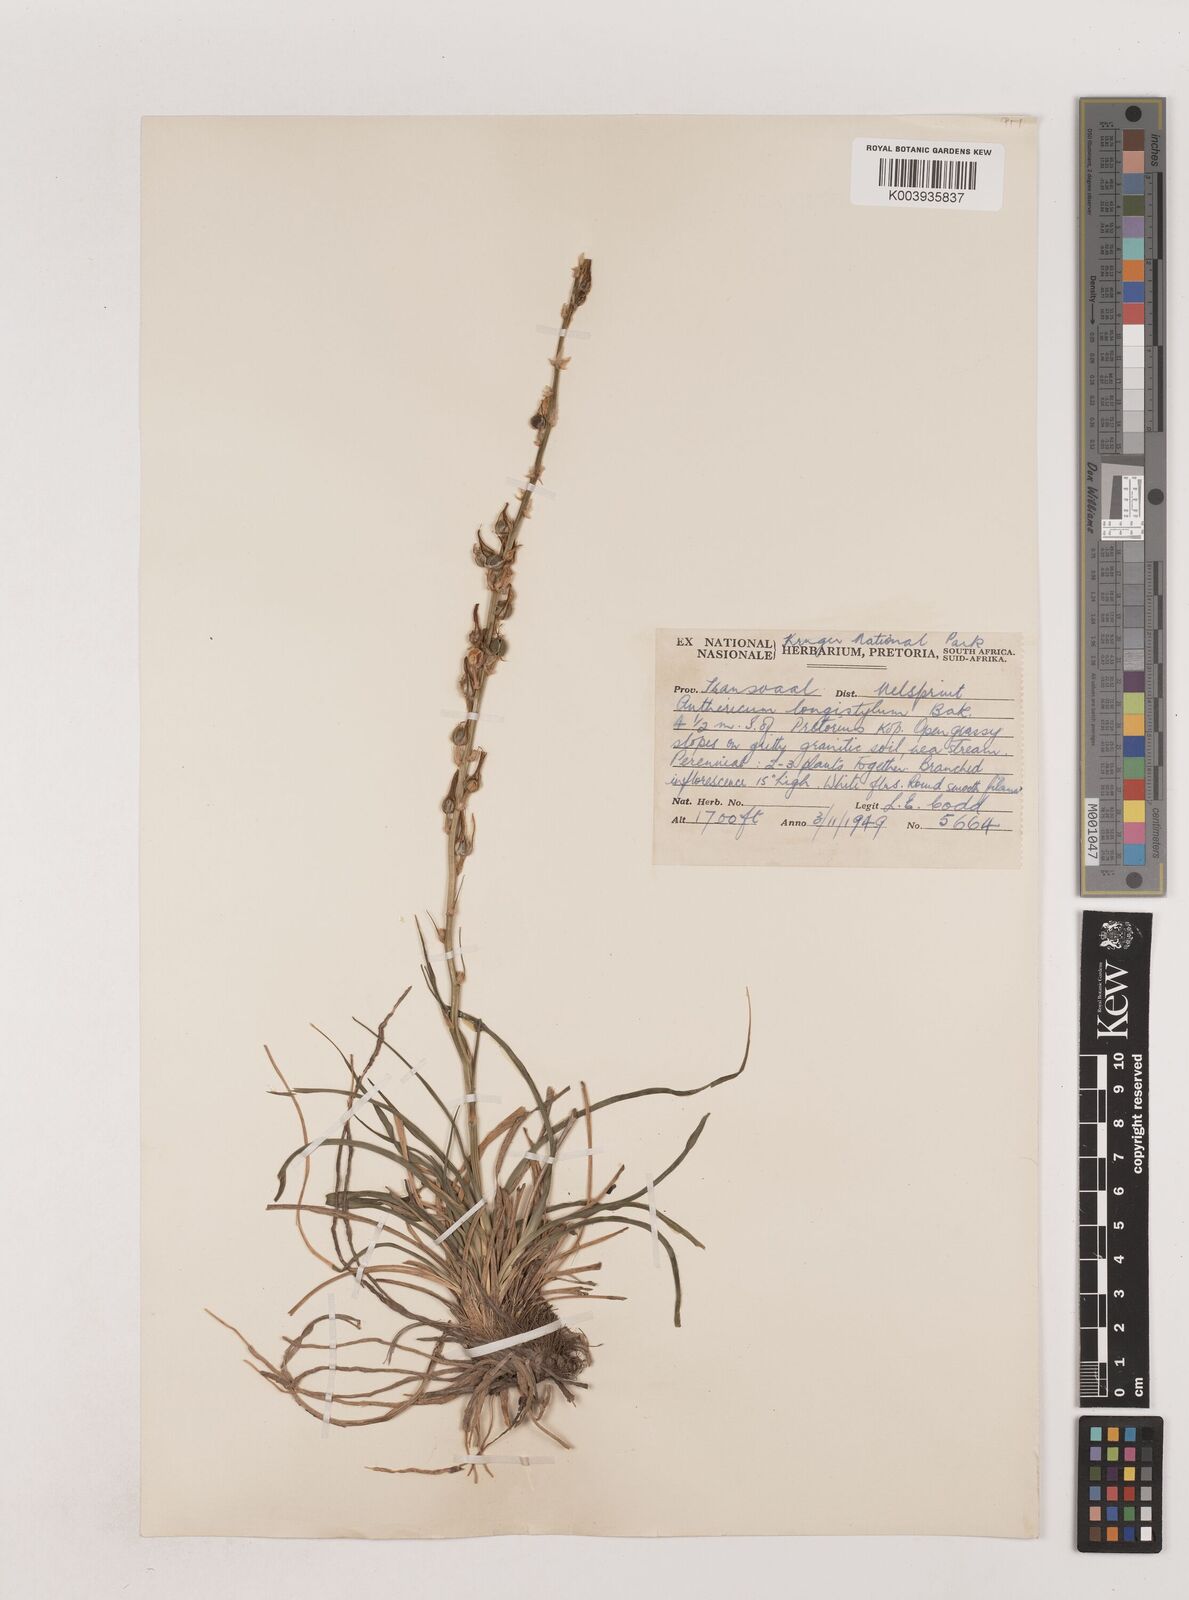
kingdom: Plantae
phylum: Tracheophyta
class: Liliopsida
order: Asparagales
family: Asparagaceae
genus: Chlorophytum
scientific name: Chlorophytum recurvifolium
